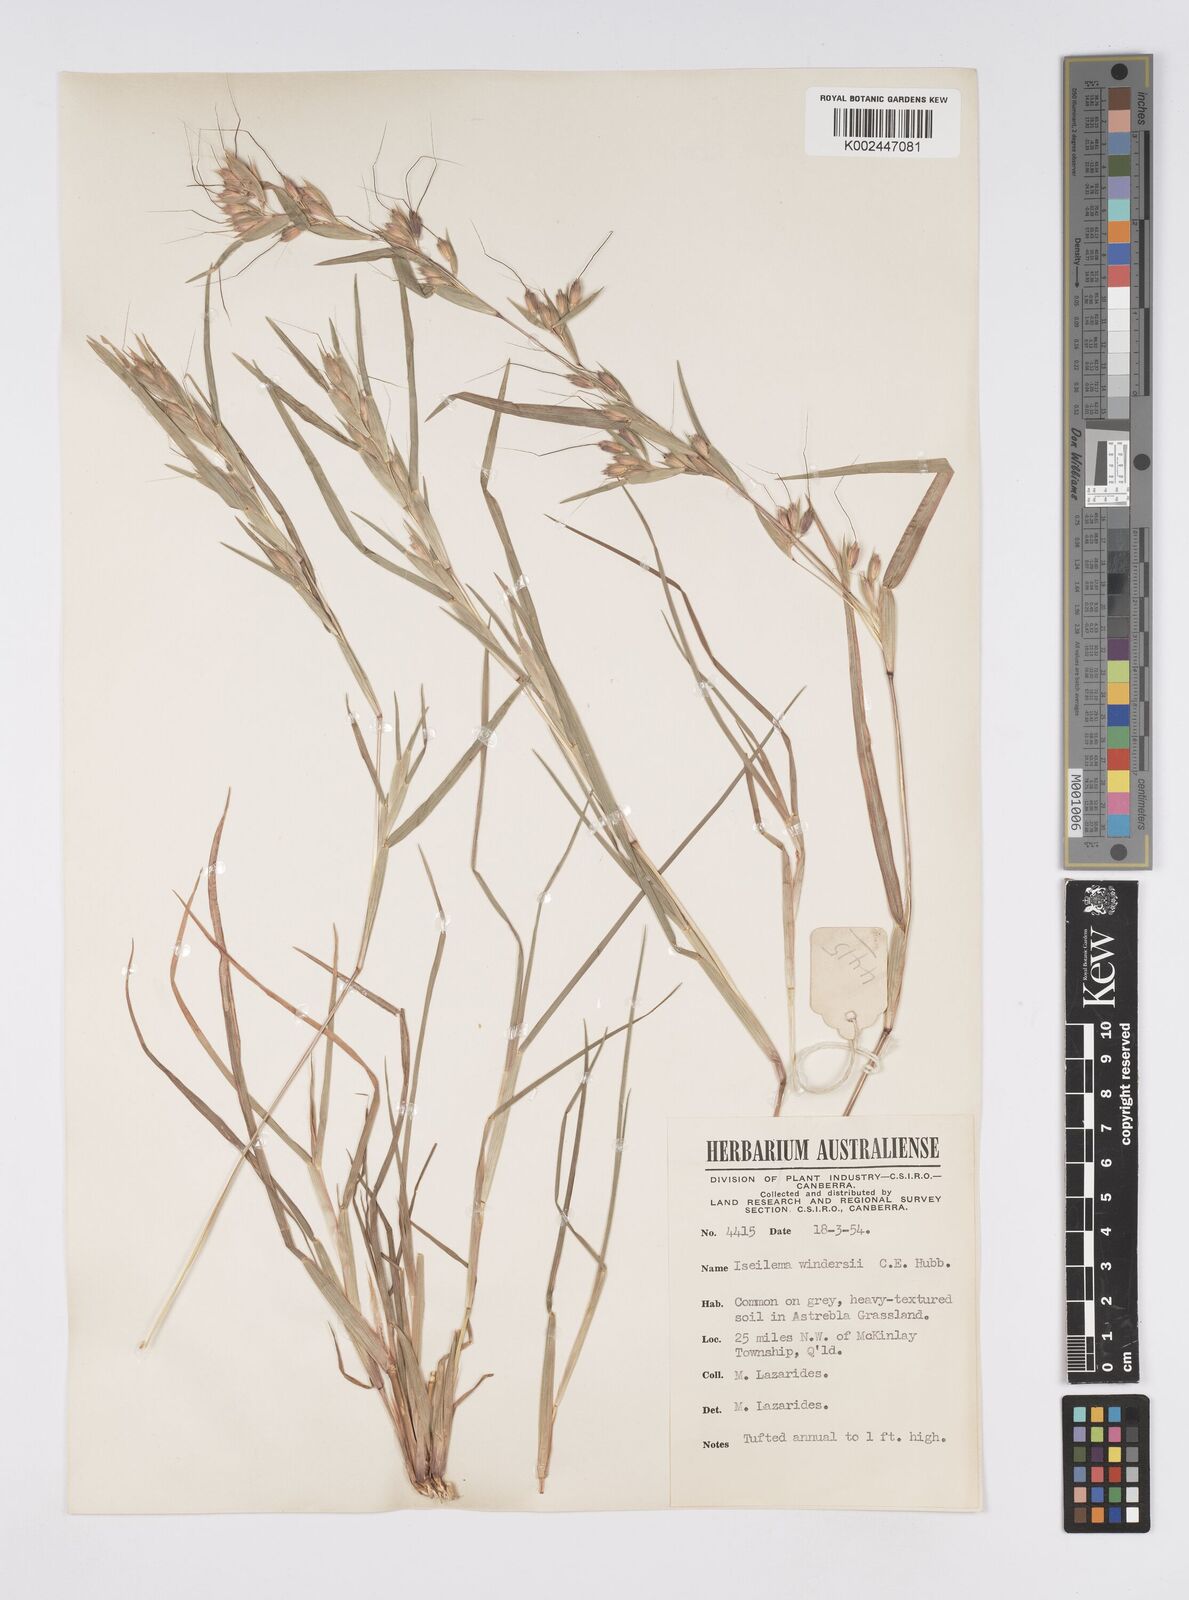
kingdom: Plantae
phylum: Tracheophyta
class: Liliopsida
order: Poales
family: Poaceae
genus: Iseilema
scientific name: Iseilema windersii
